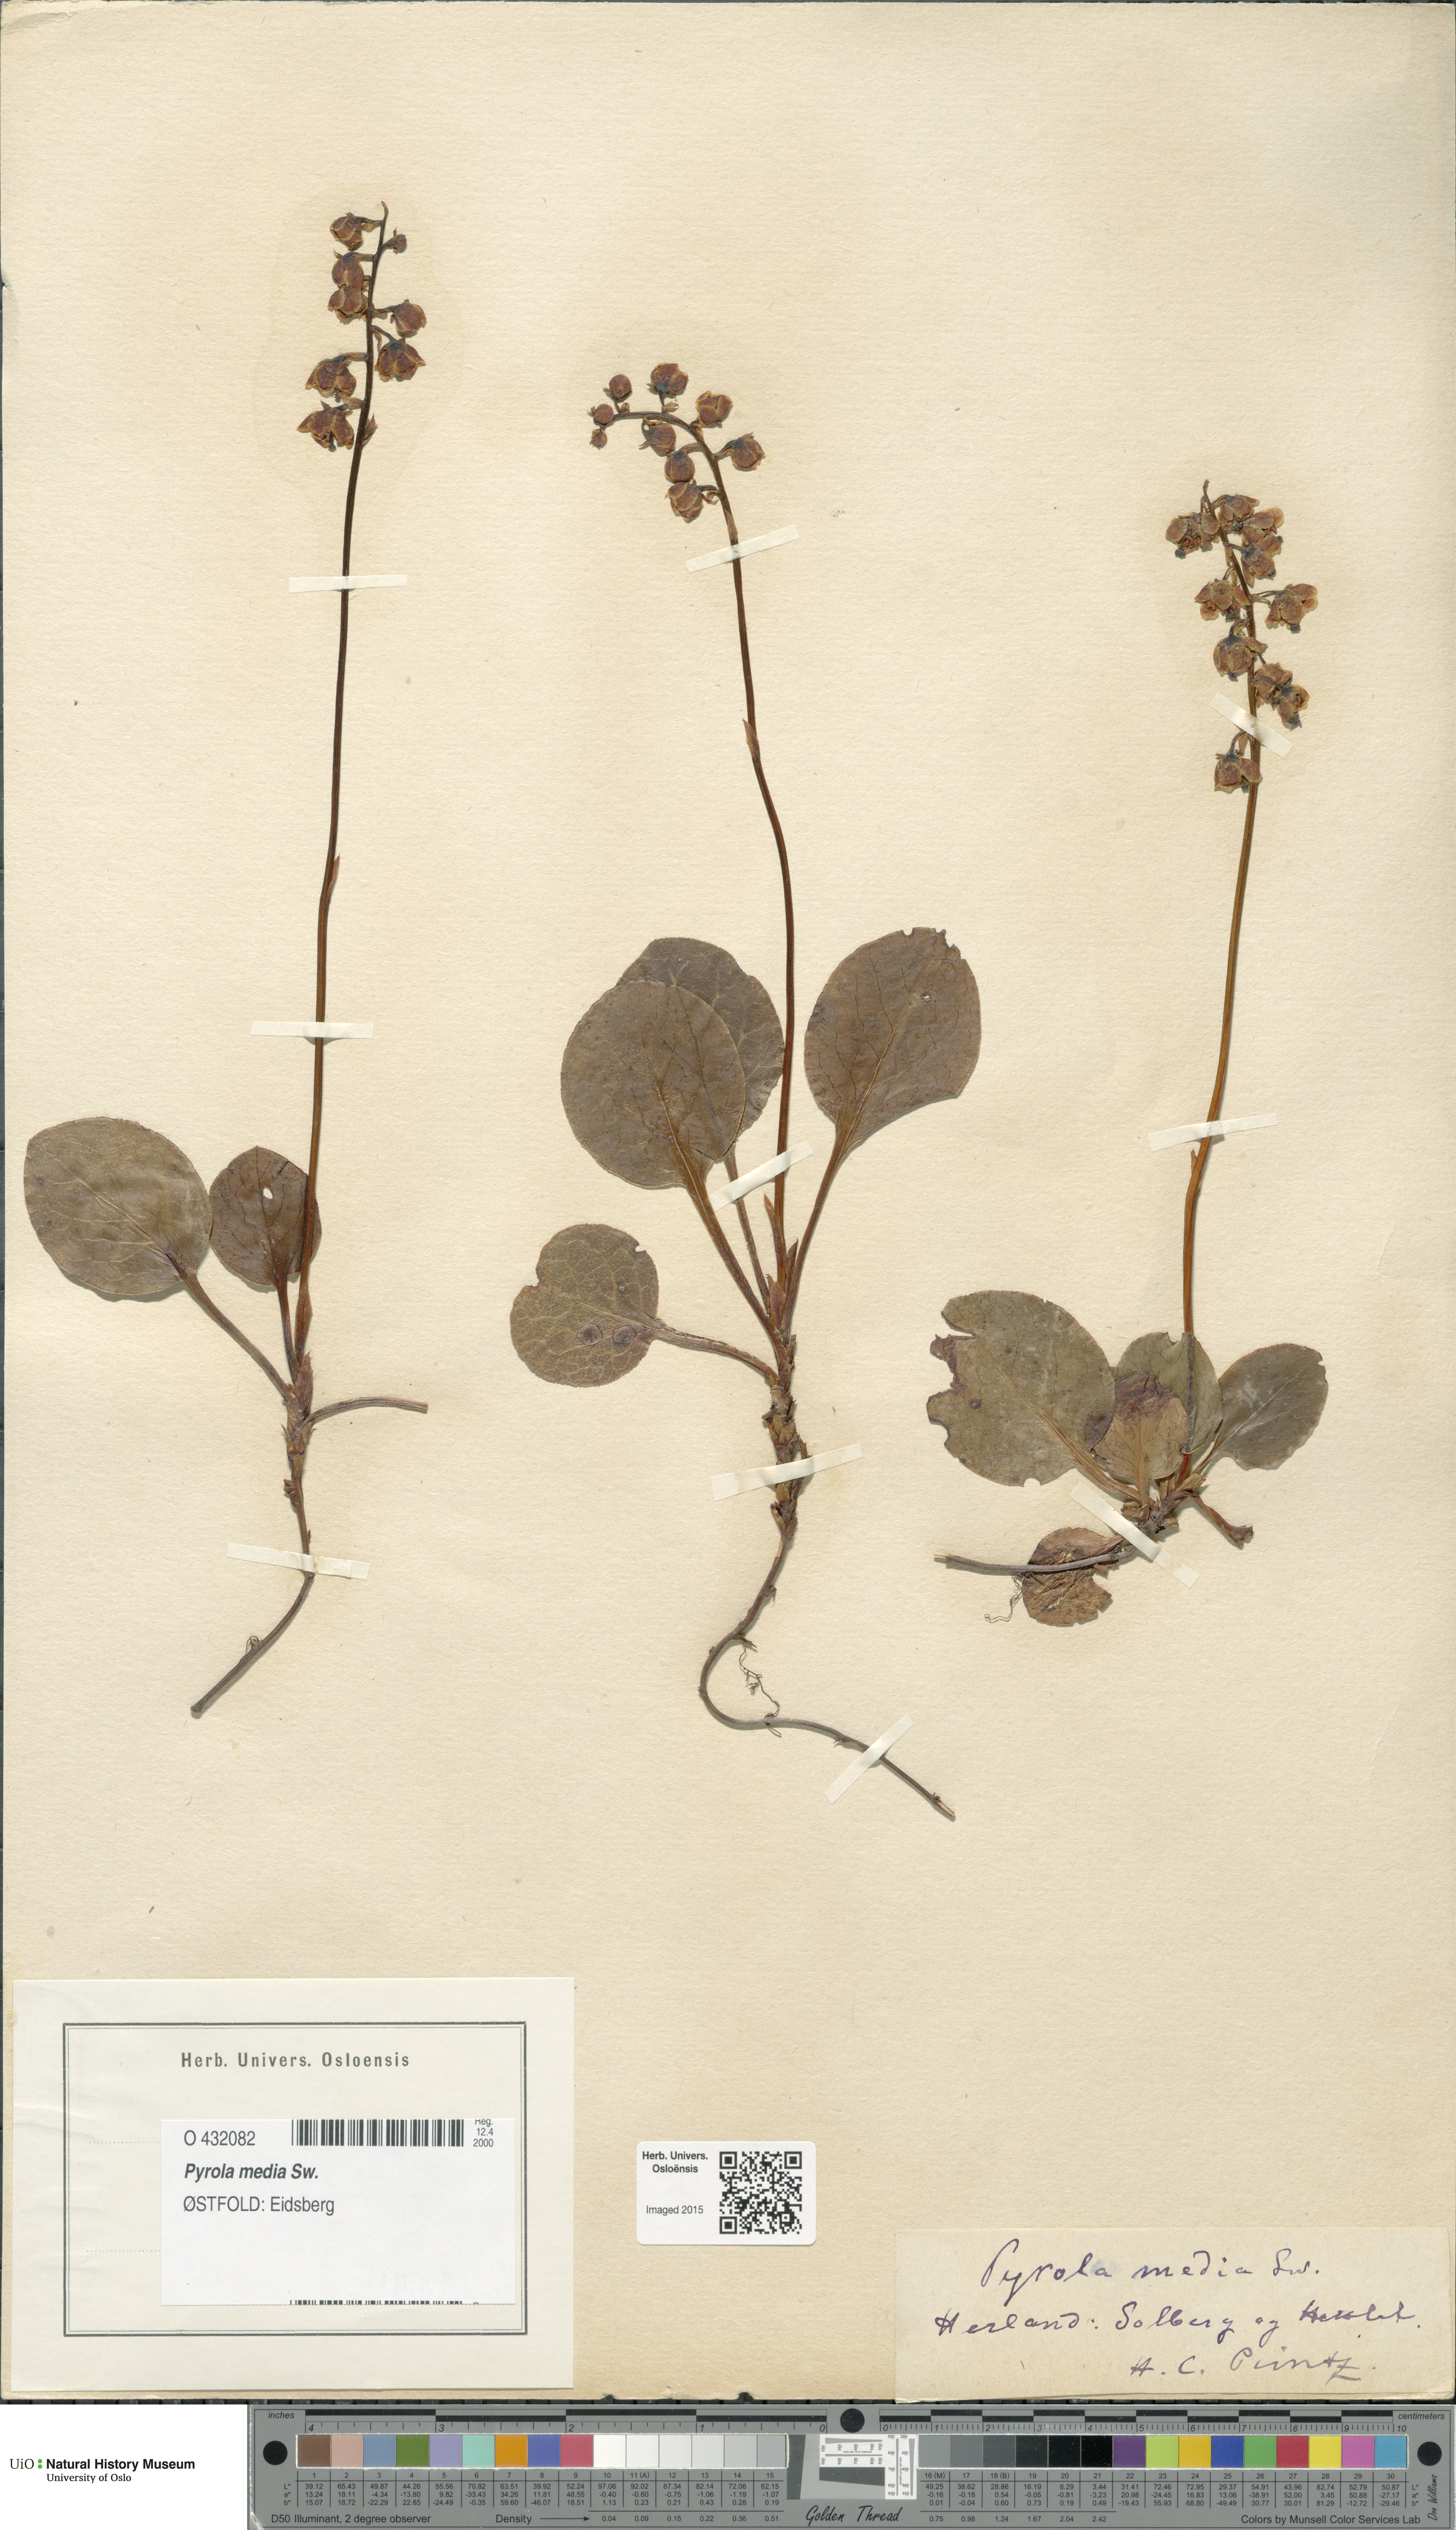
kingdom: Plantae
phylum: Tracheophyta
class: Magnoliopsida
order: Ericales
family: Ericaceae
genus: Pyrola
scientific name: Pyrola media
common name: Intermediate wintergreen
